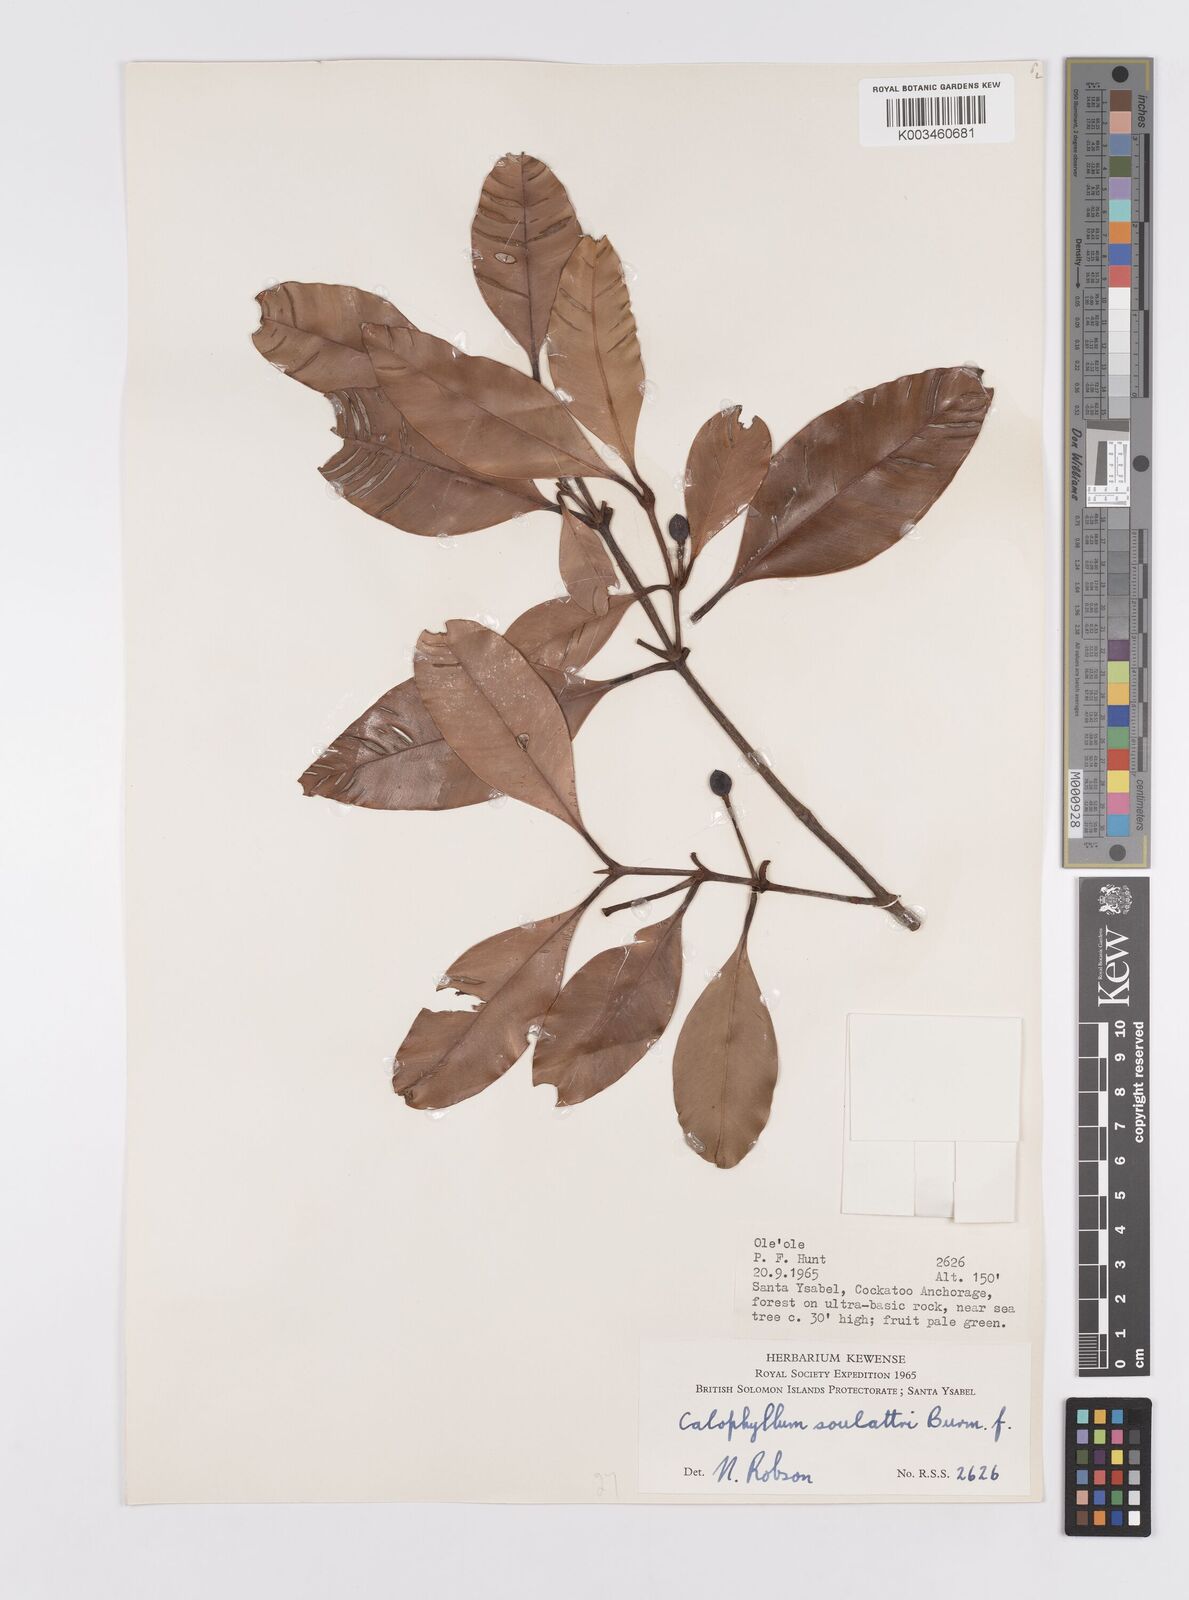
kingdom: Plantae
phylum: Tracheophyta
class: Magnoliopsida
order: Malpighiales
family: Calophyllaceae
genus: Calophyllum
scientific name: Calophyllum soulattri
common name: Bitangoor boonot
